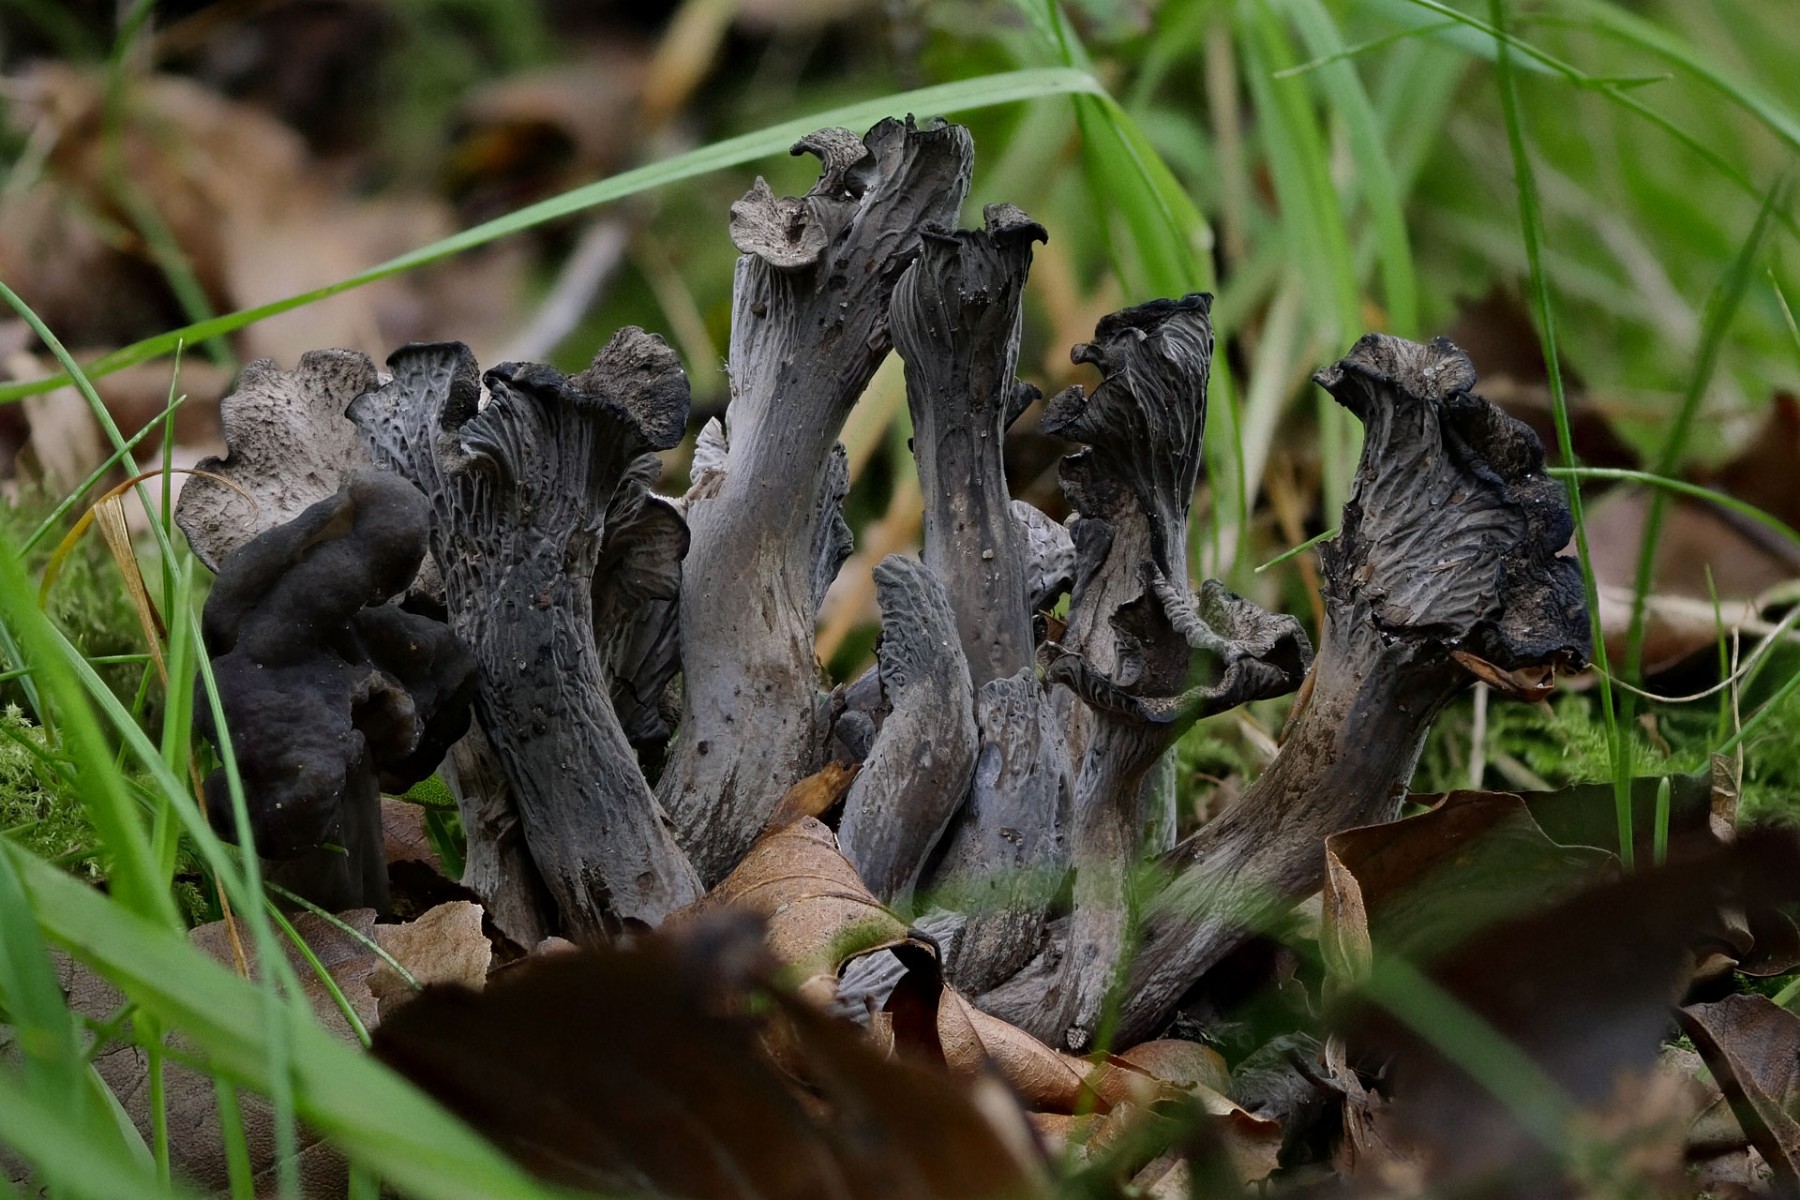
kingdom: Fungi
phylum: Basidiomycota
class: Agaricomycetes
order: Cantharellales
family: Hydnaceae
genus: Cantharellus
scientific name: Cantharellus cinereus
